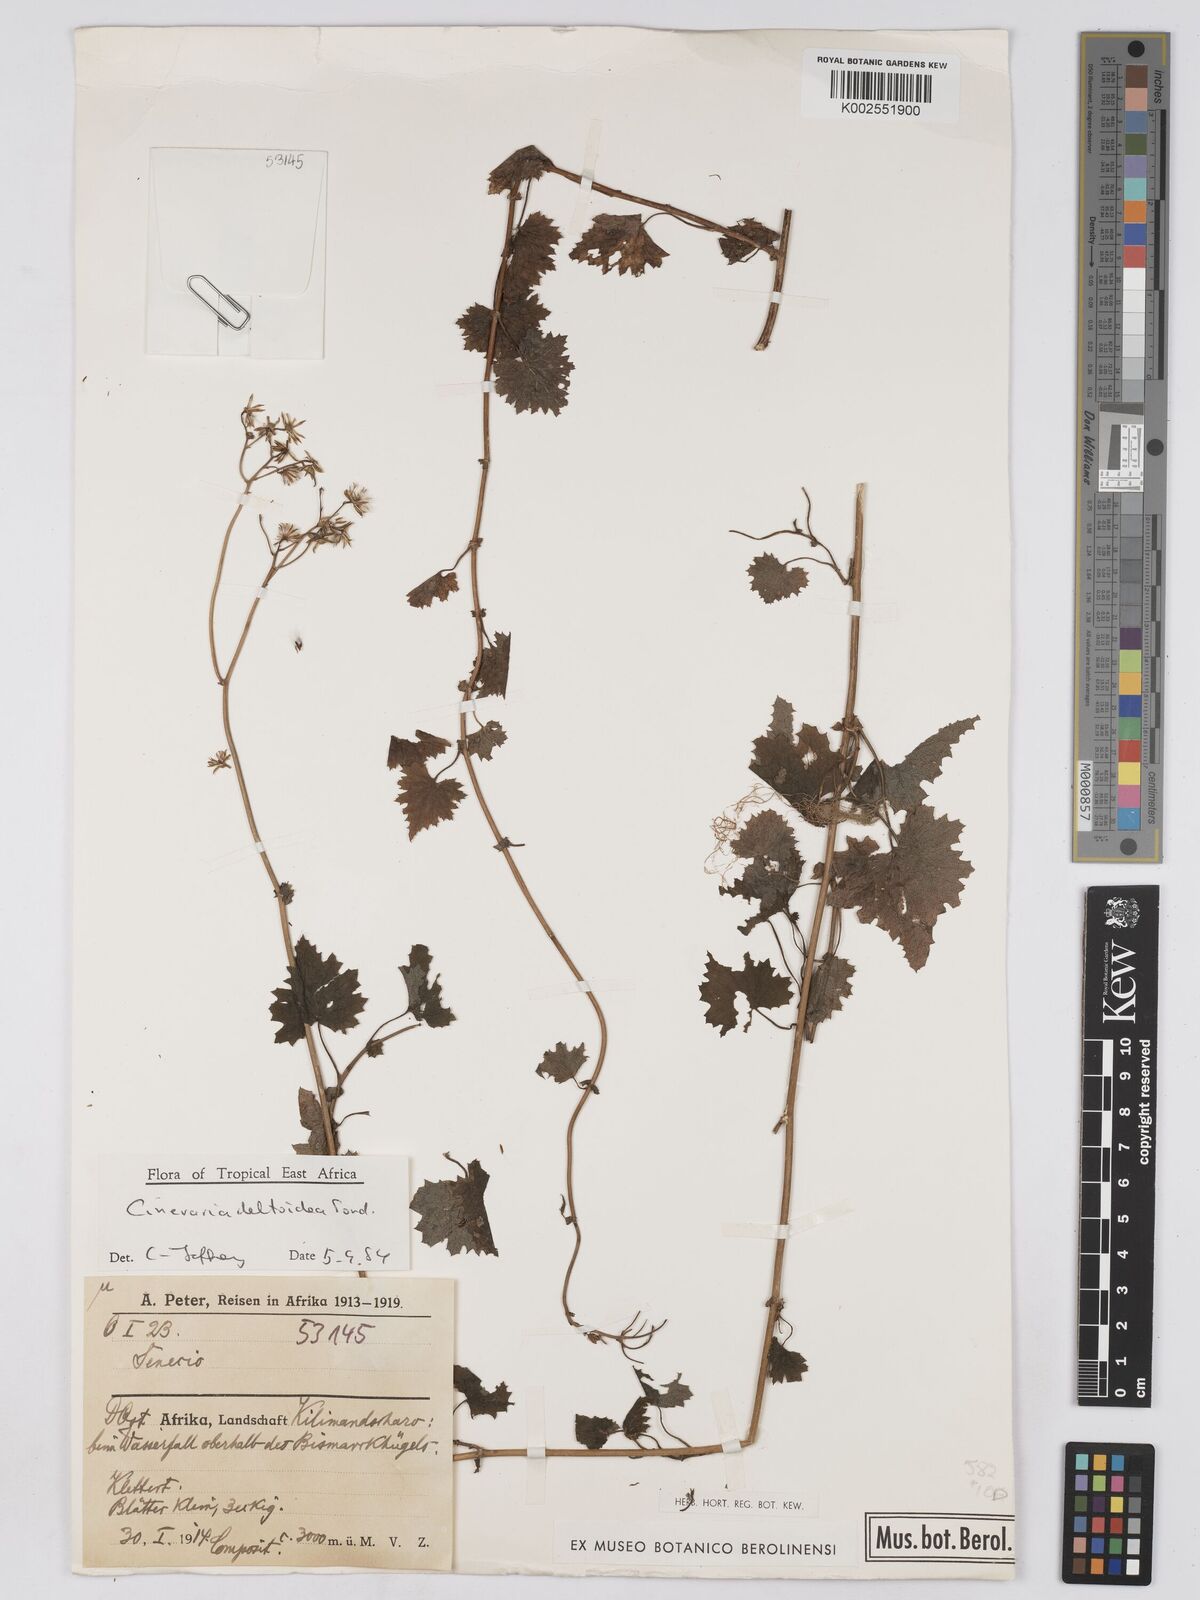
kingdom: Plantae
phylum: Tracheophyta
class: Magnoliopsida
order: Asterales
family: Asteraceae
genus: Cineraria
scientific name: Cineraria deltoidea
